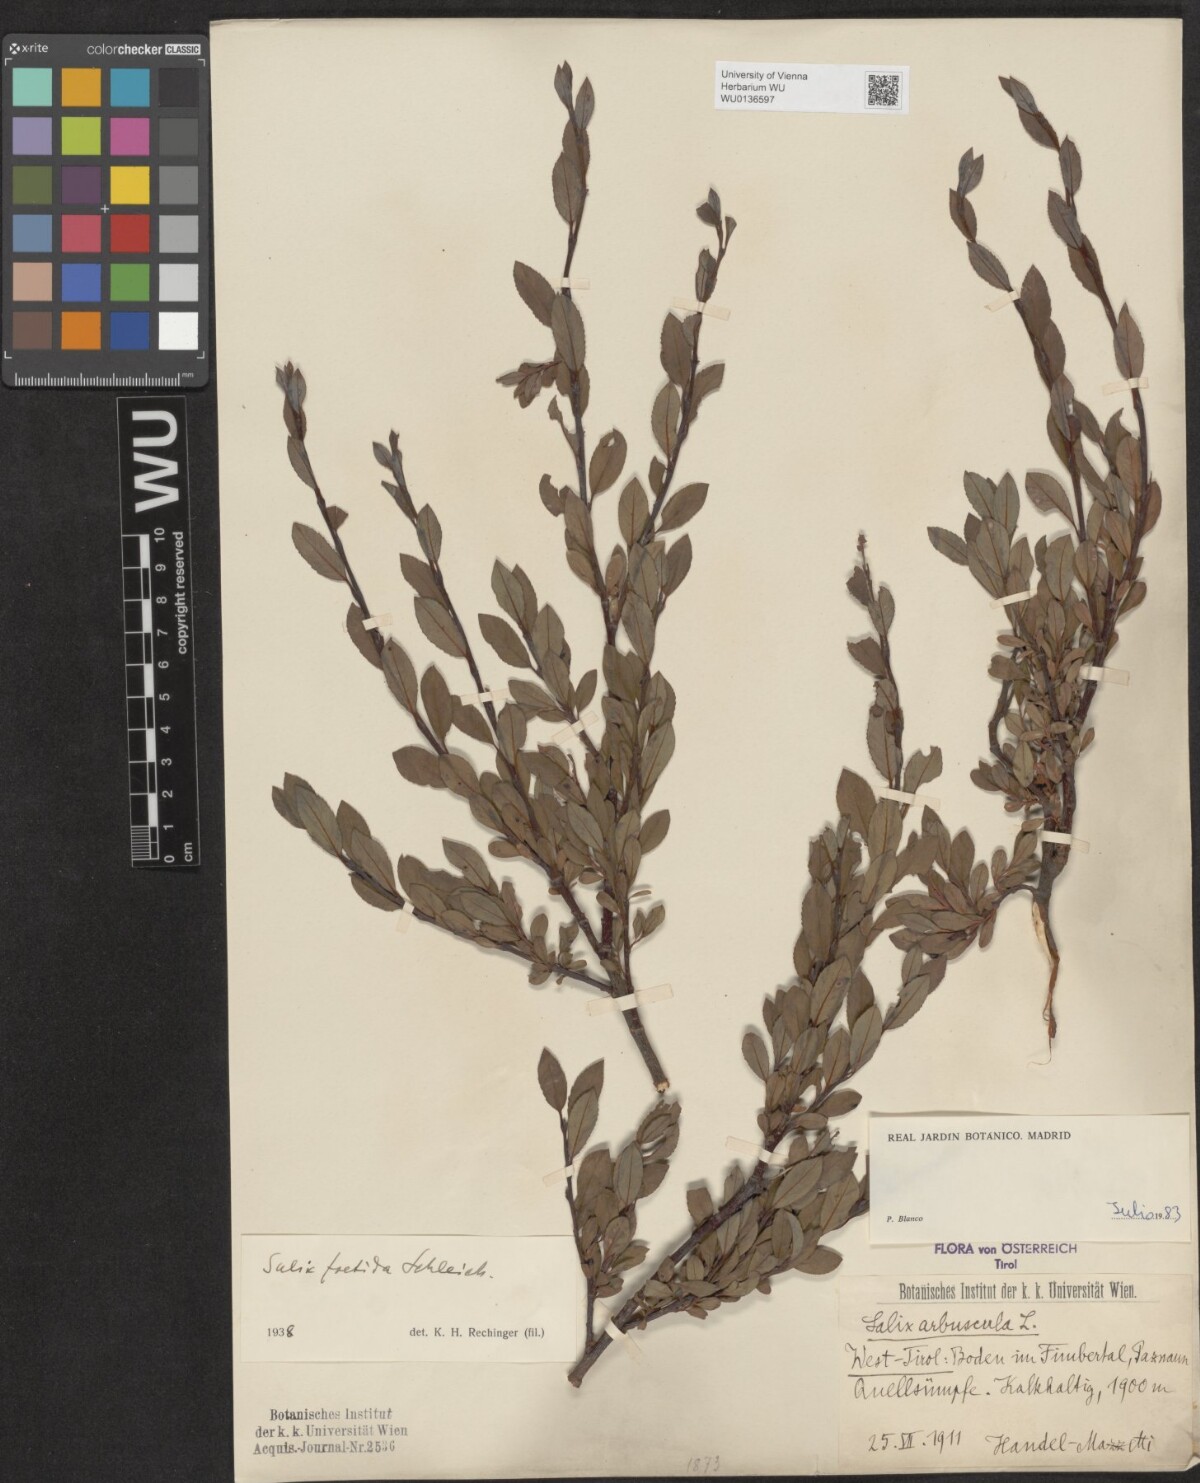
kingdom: Plantae
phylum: Tracheophyta
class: Magnoliopsida
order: Malpighiales
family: Salicaceae
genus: Salix
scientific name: Salix foetida
